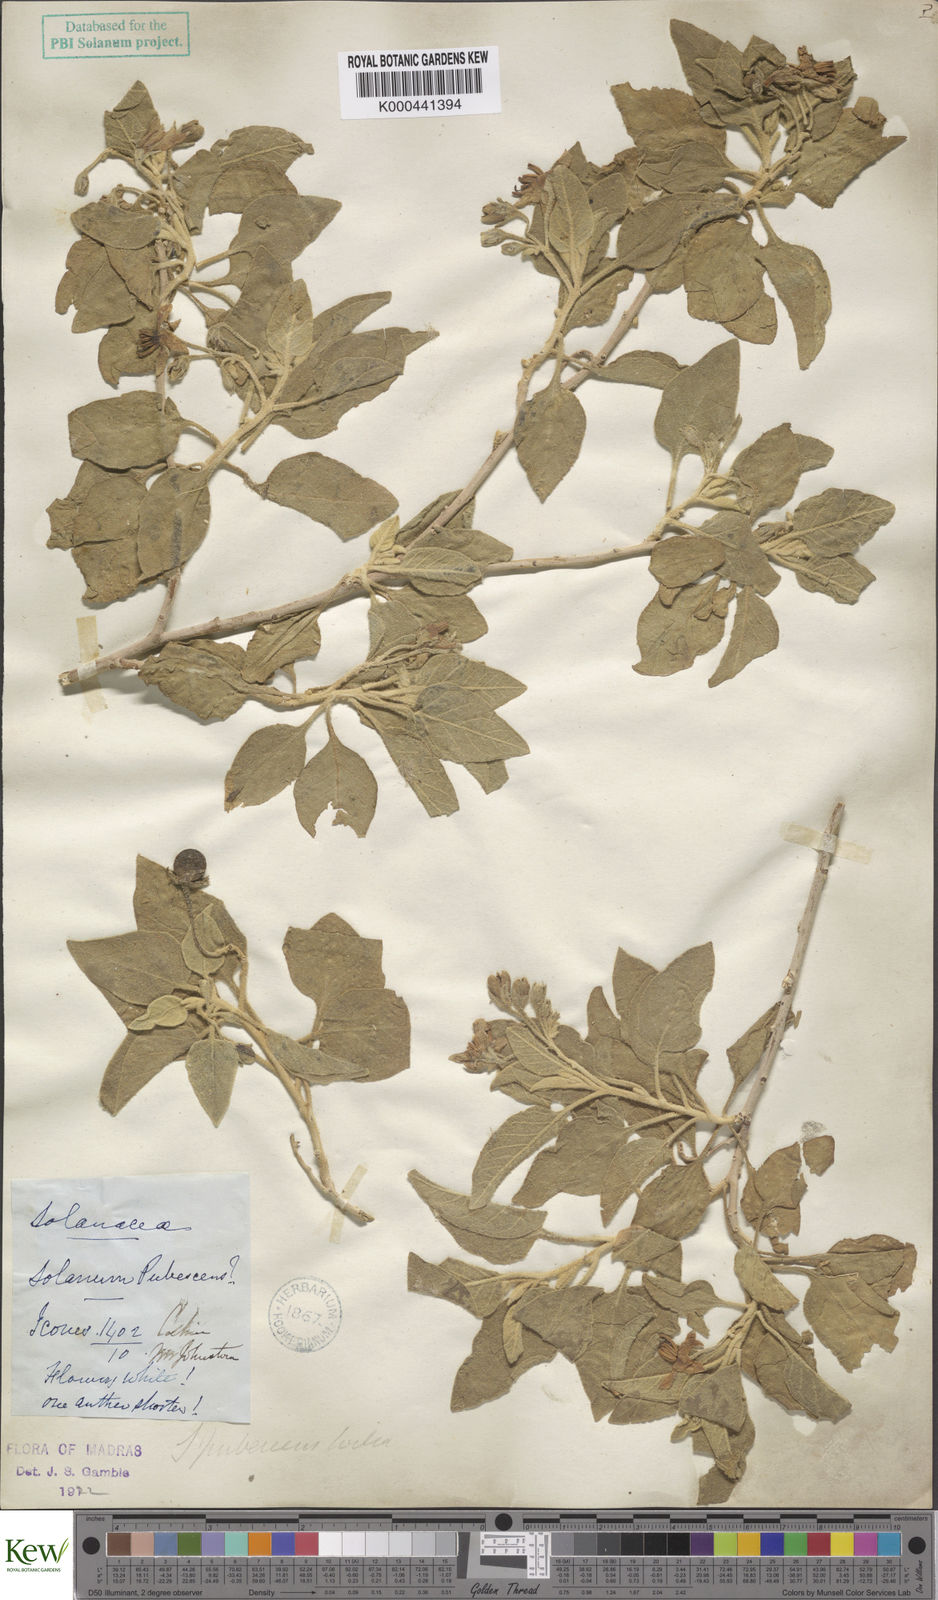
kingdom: Plantae
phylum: Tracheophyta
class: Magnoliopsida
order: Solanales
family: Solanaceae
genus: Solanum
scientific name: Solanum pubescens
